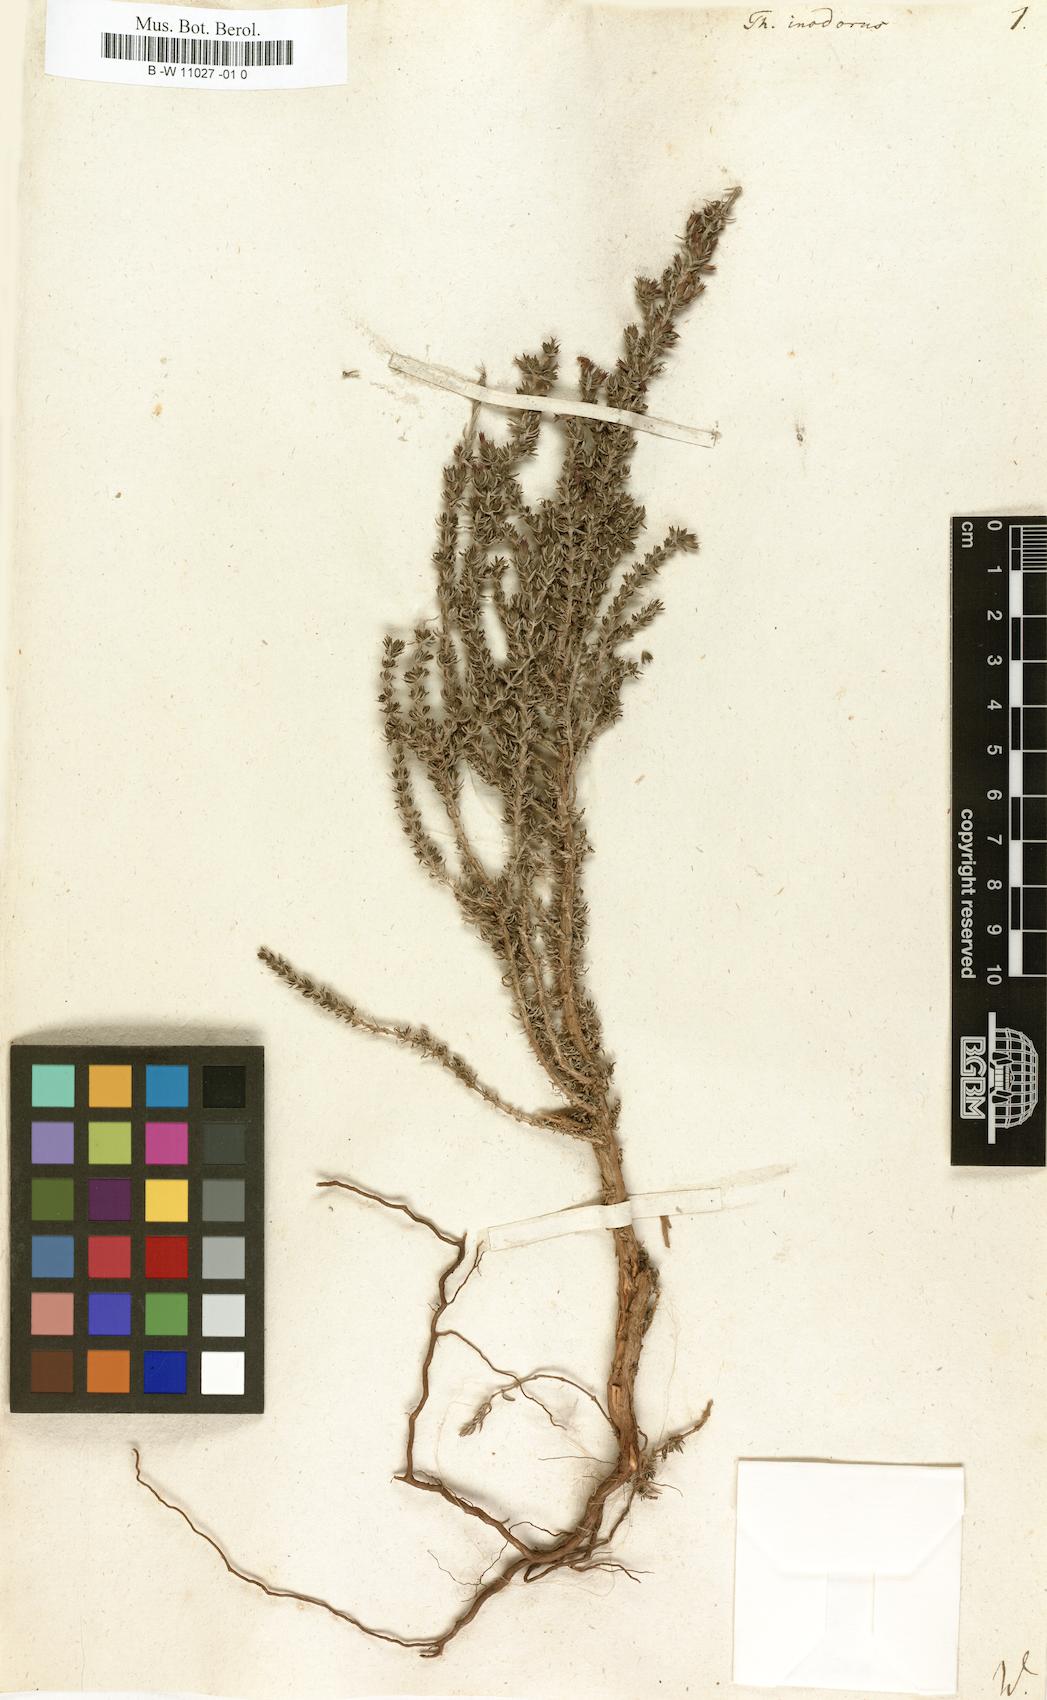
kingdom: Plantae
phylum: Tracheophyta
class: Magnoliopsida
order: Lamiales
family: Lamiaceae
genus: Thymus
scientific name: Thymus inodorus
